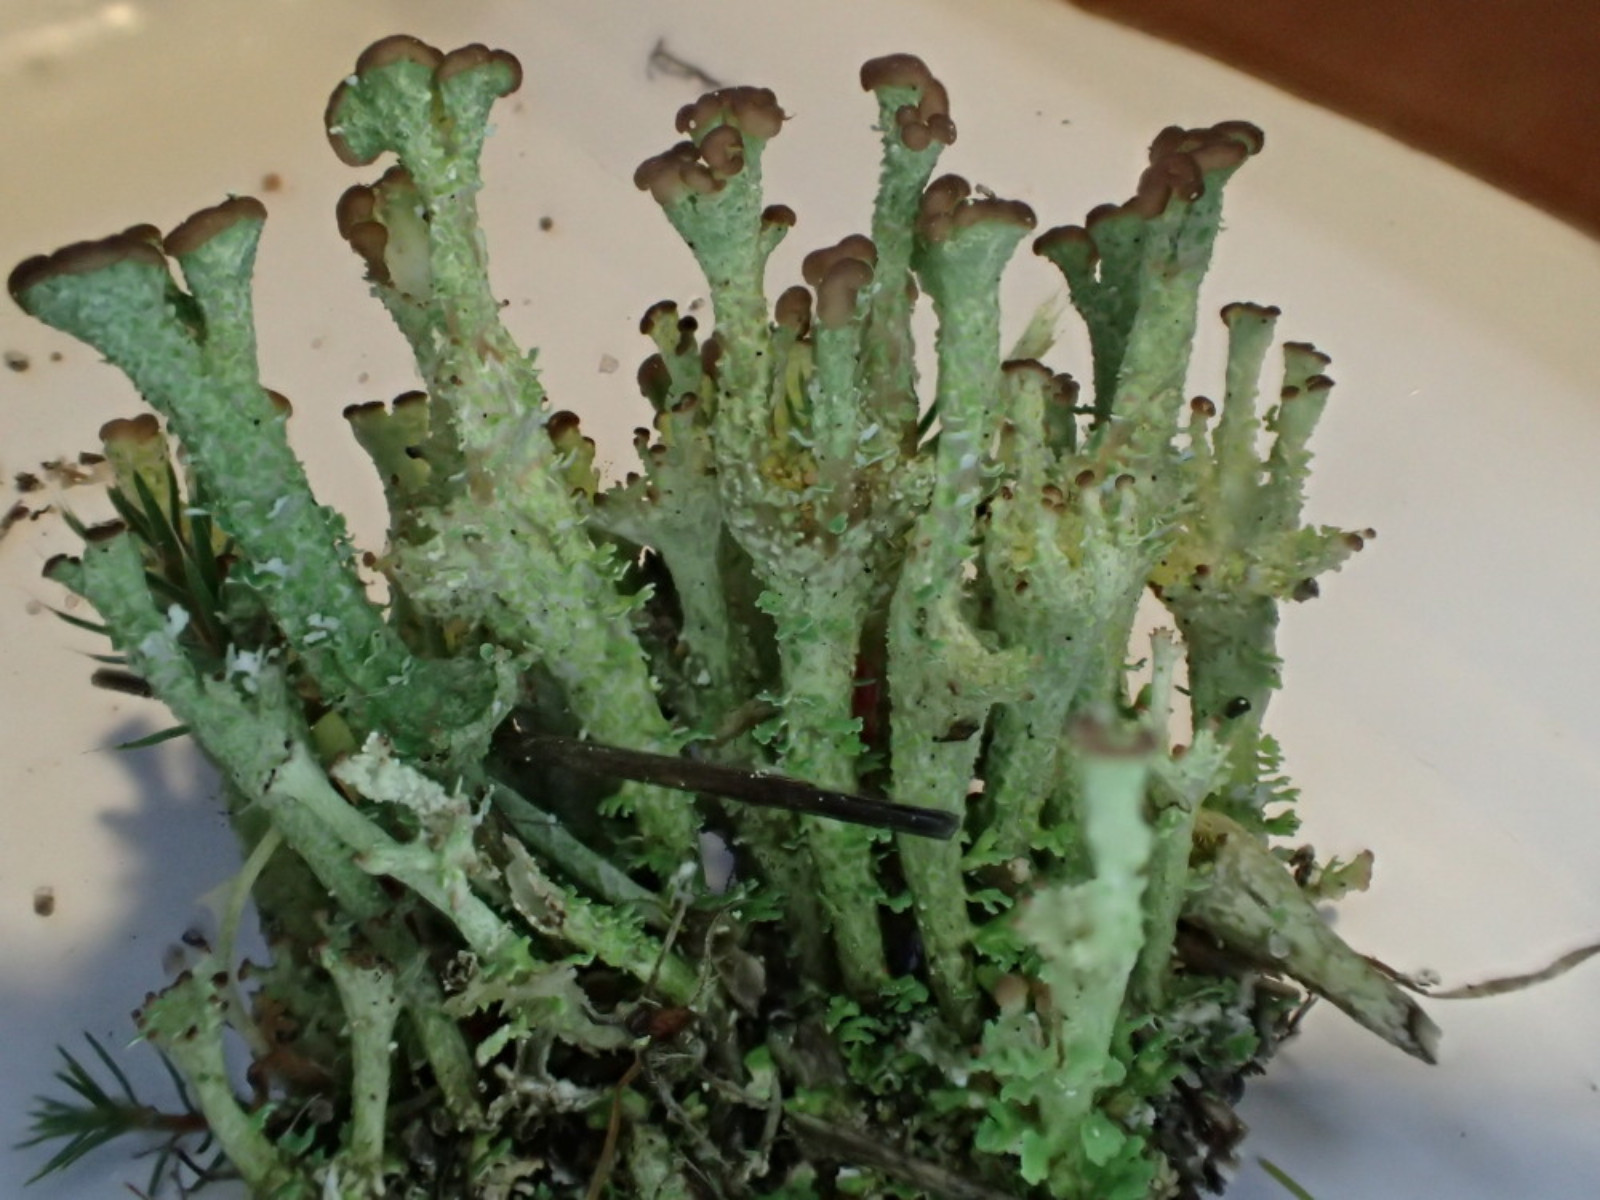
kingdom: Fungi
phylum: Ascomycota
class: Lecanoromycetes
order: Lecanorales
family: Cladoniaceae
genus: Cladonia
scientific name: Cladonia ramulosa
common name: kliddet bægerlav
